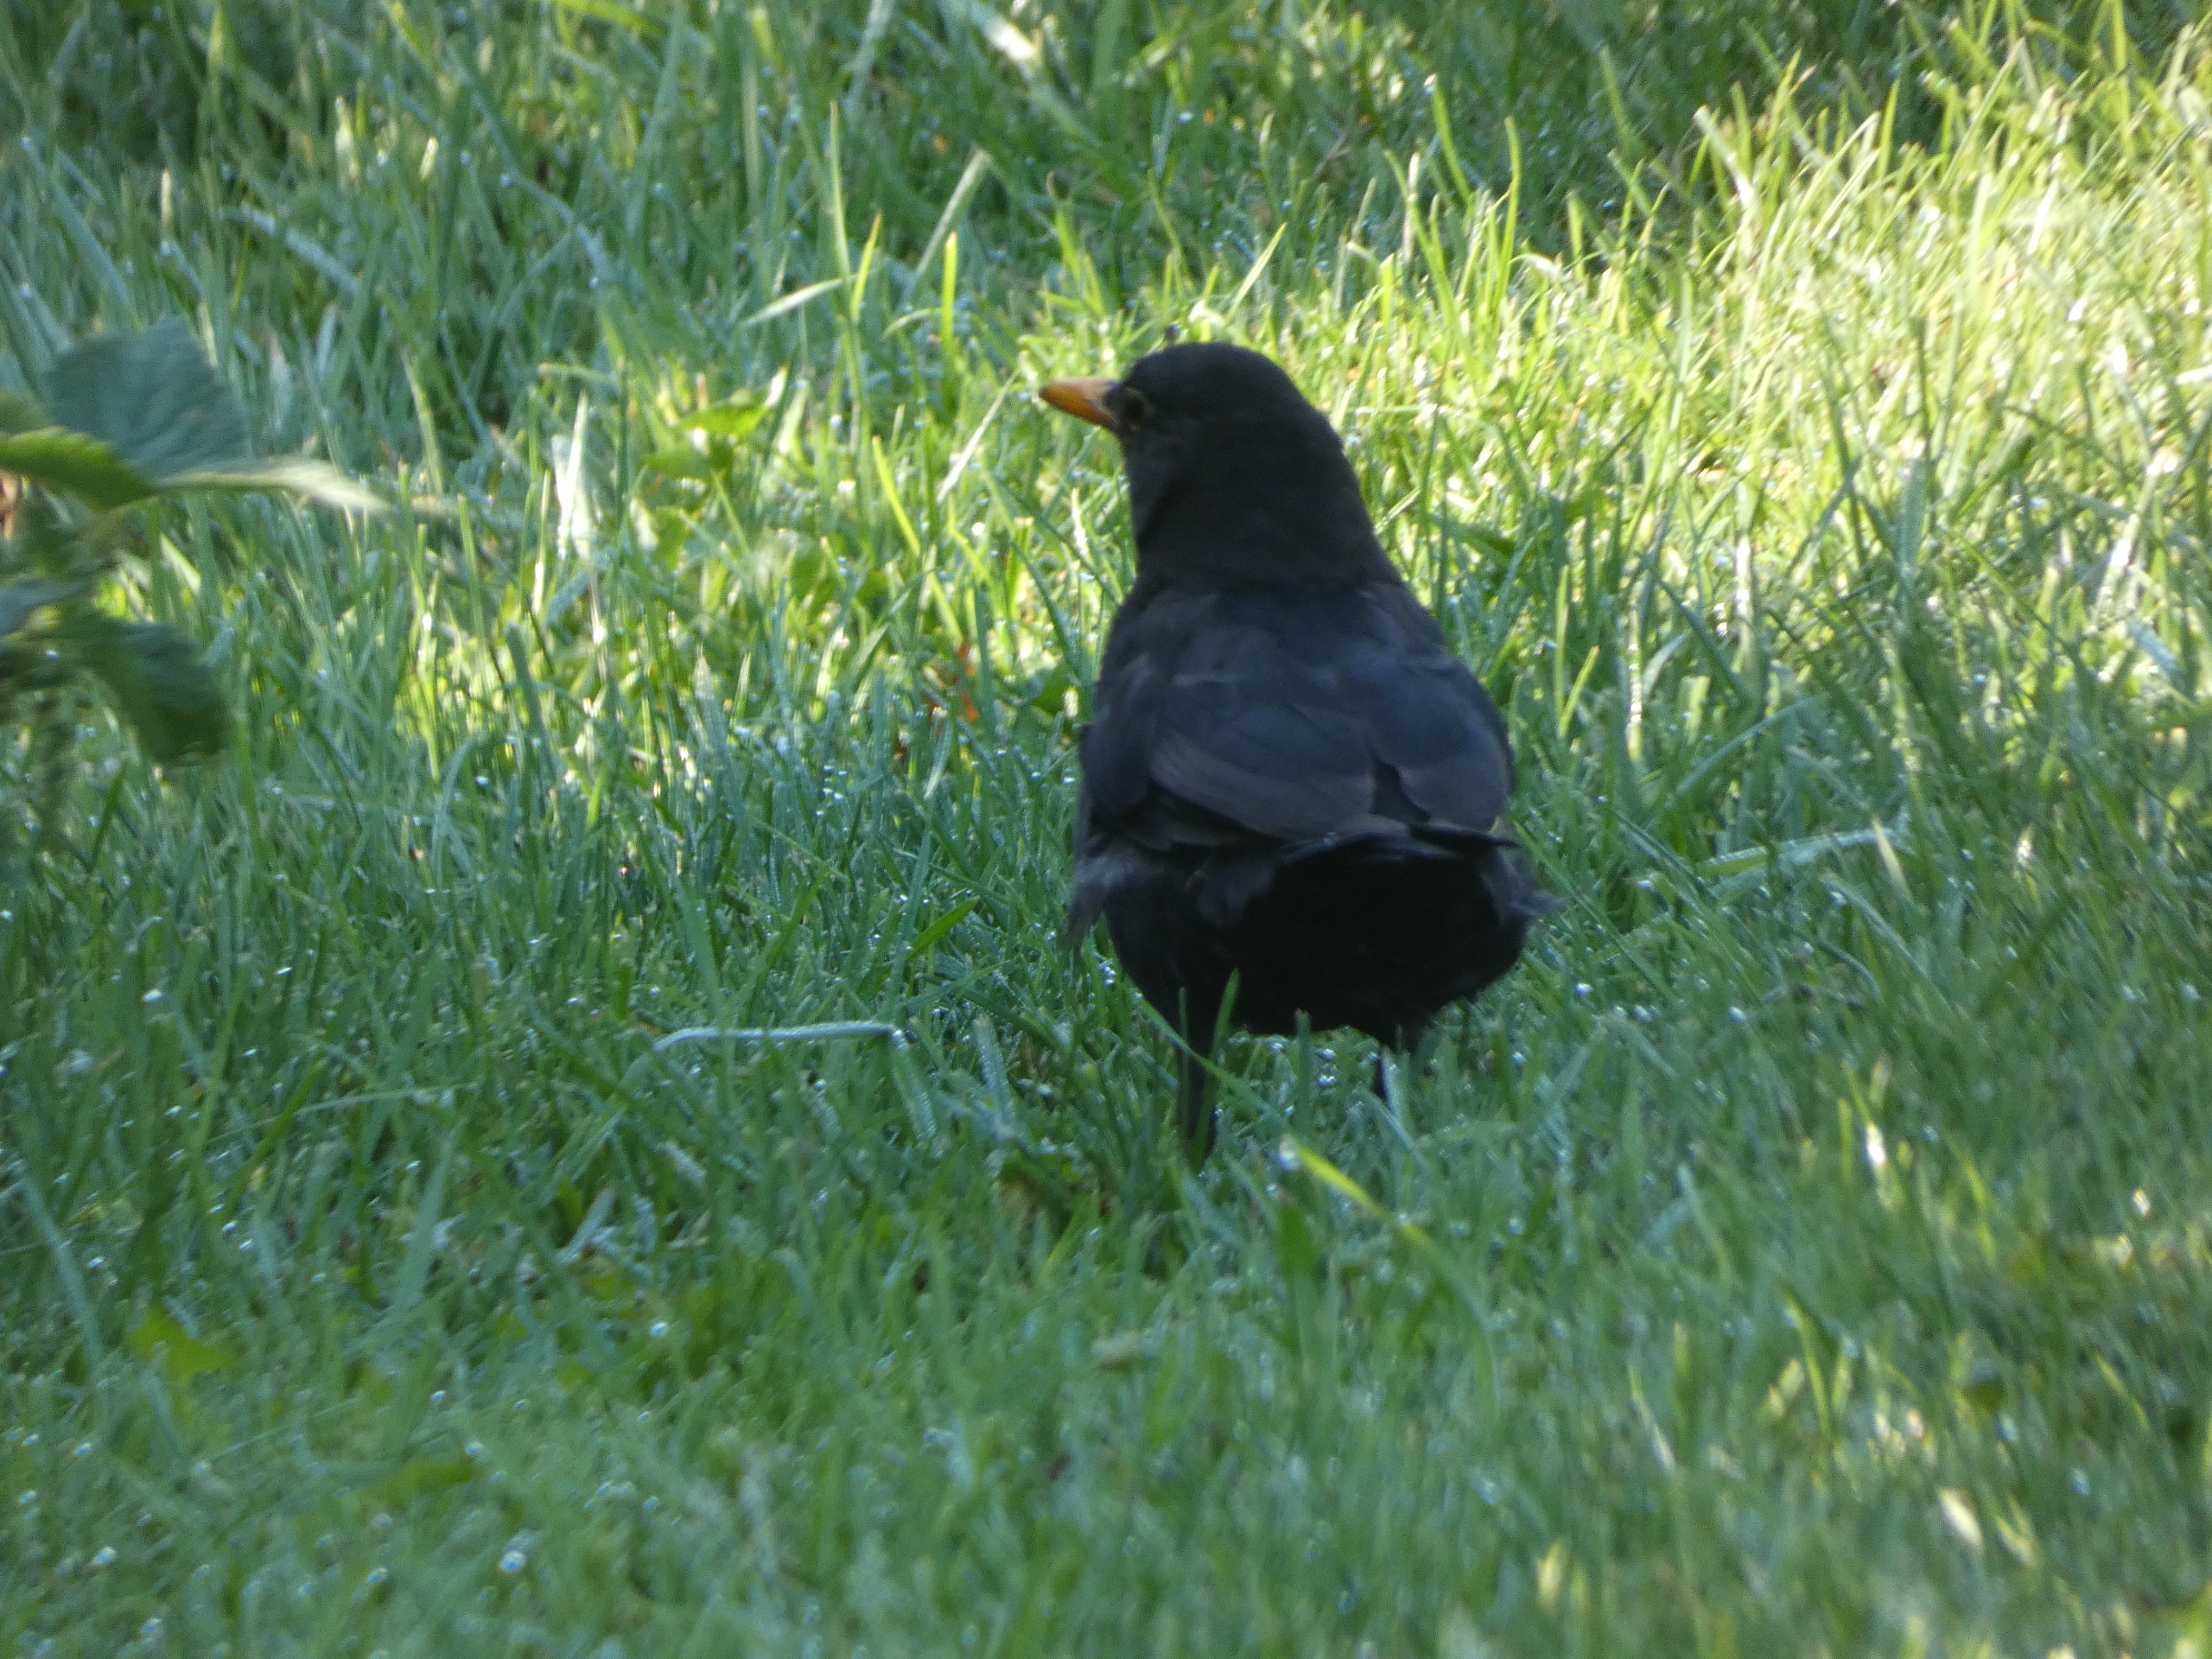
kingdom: Animalia
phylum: Chordata
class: Aves
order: Passeriformes
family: Turdidae
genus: Turdus
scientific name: Turdus merula
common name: Solsort
